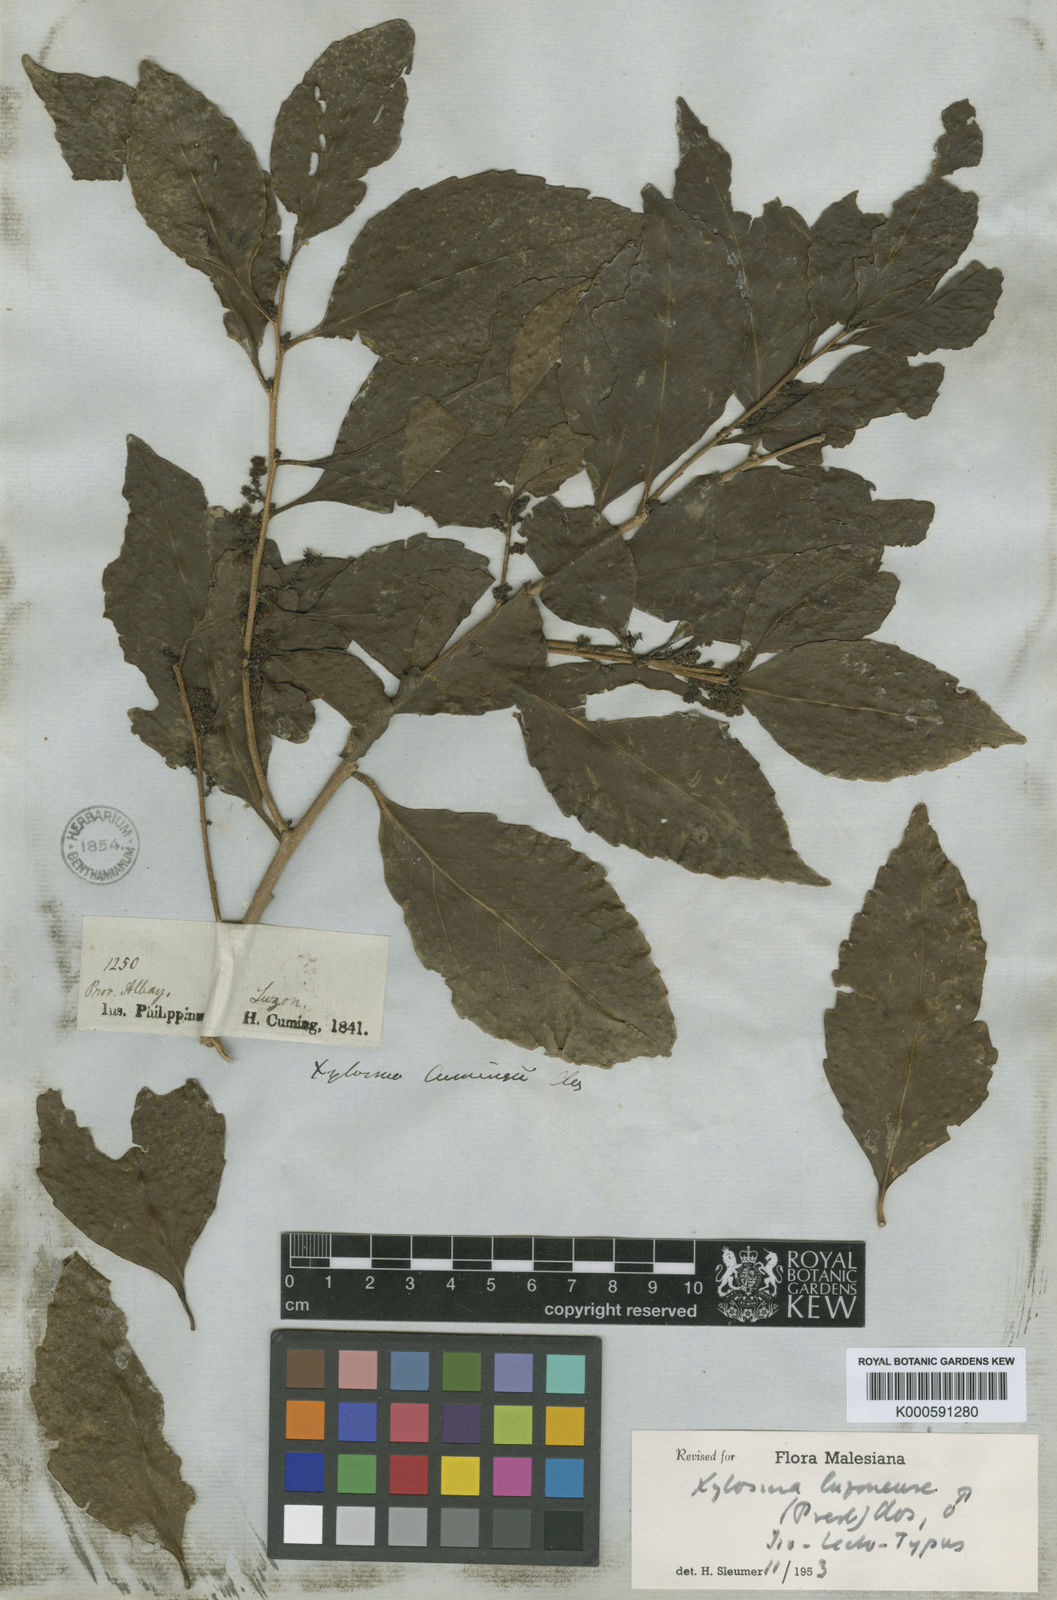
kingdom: Plantae
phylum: Tracheophyta
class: Magnoliopsida
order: Malpighiales
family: Salicaceae
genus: Xylosma
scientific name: Xylosma luzonensis
